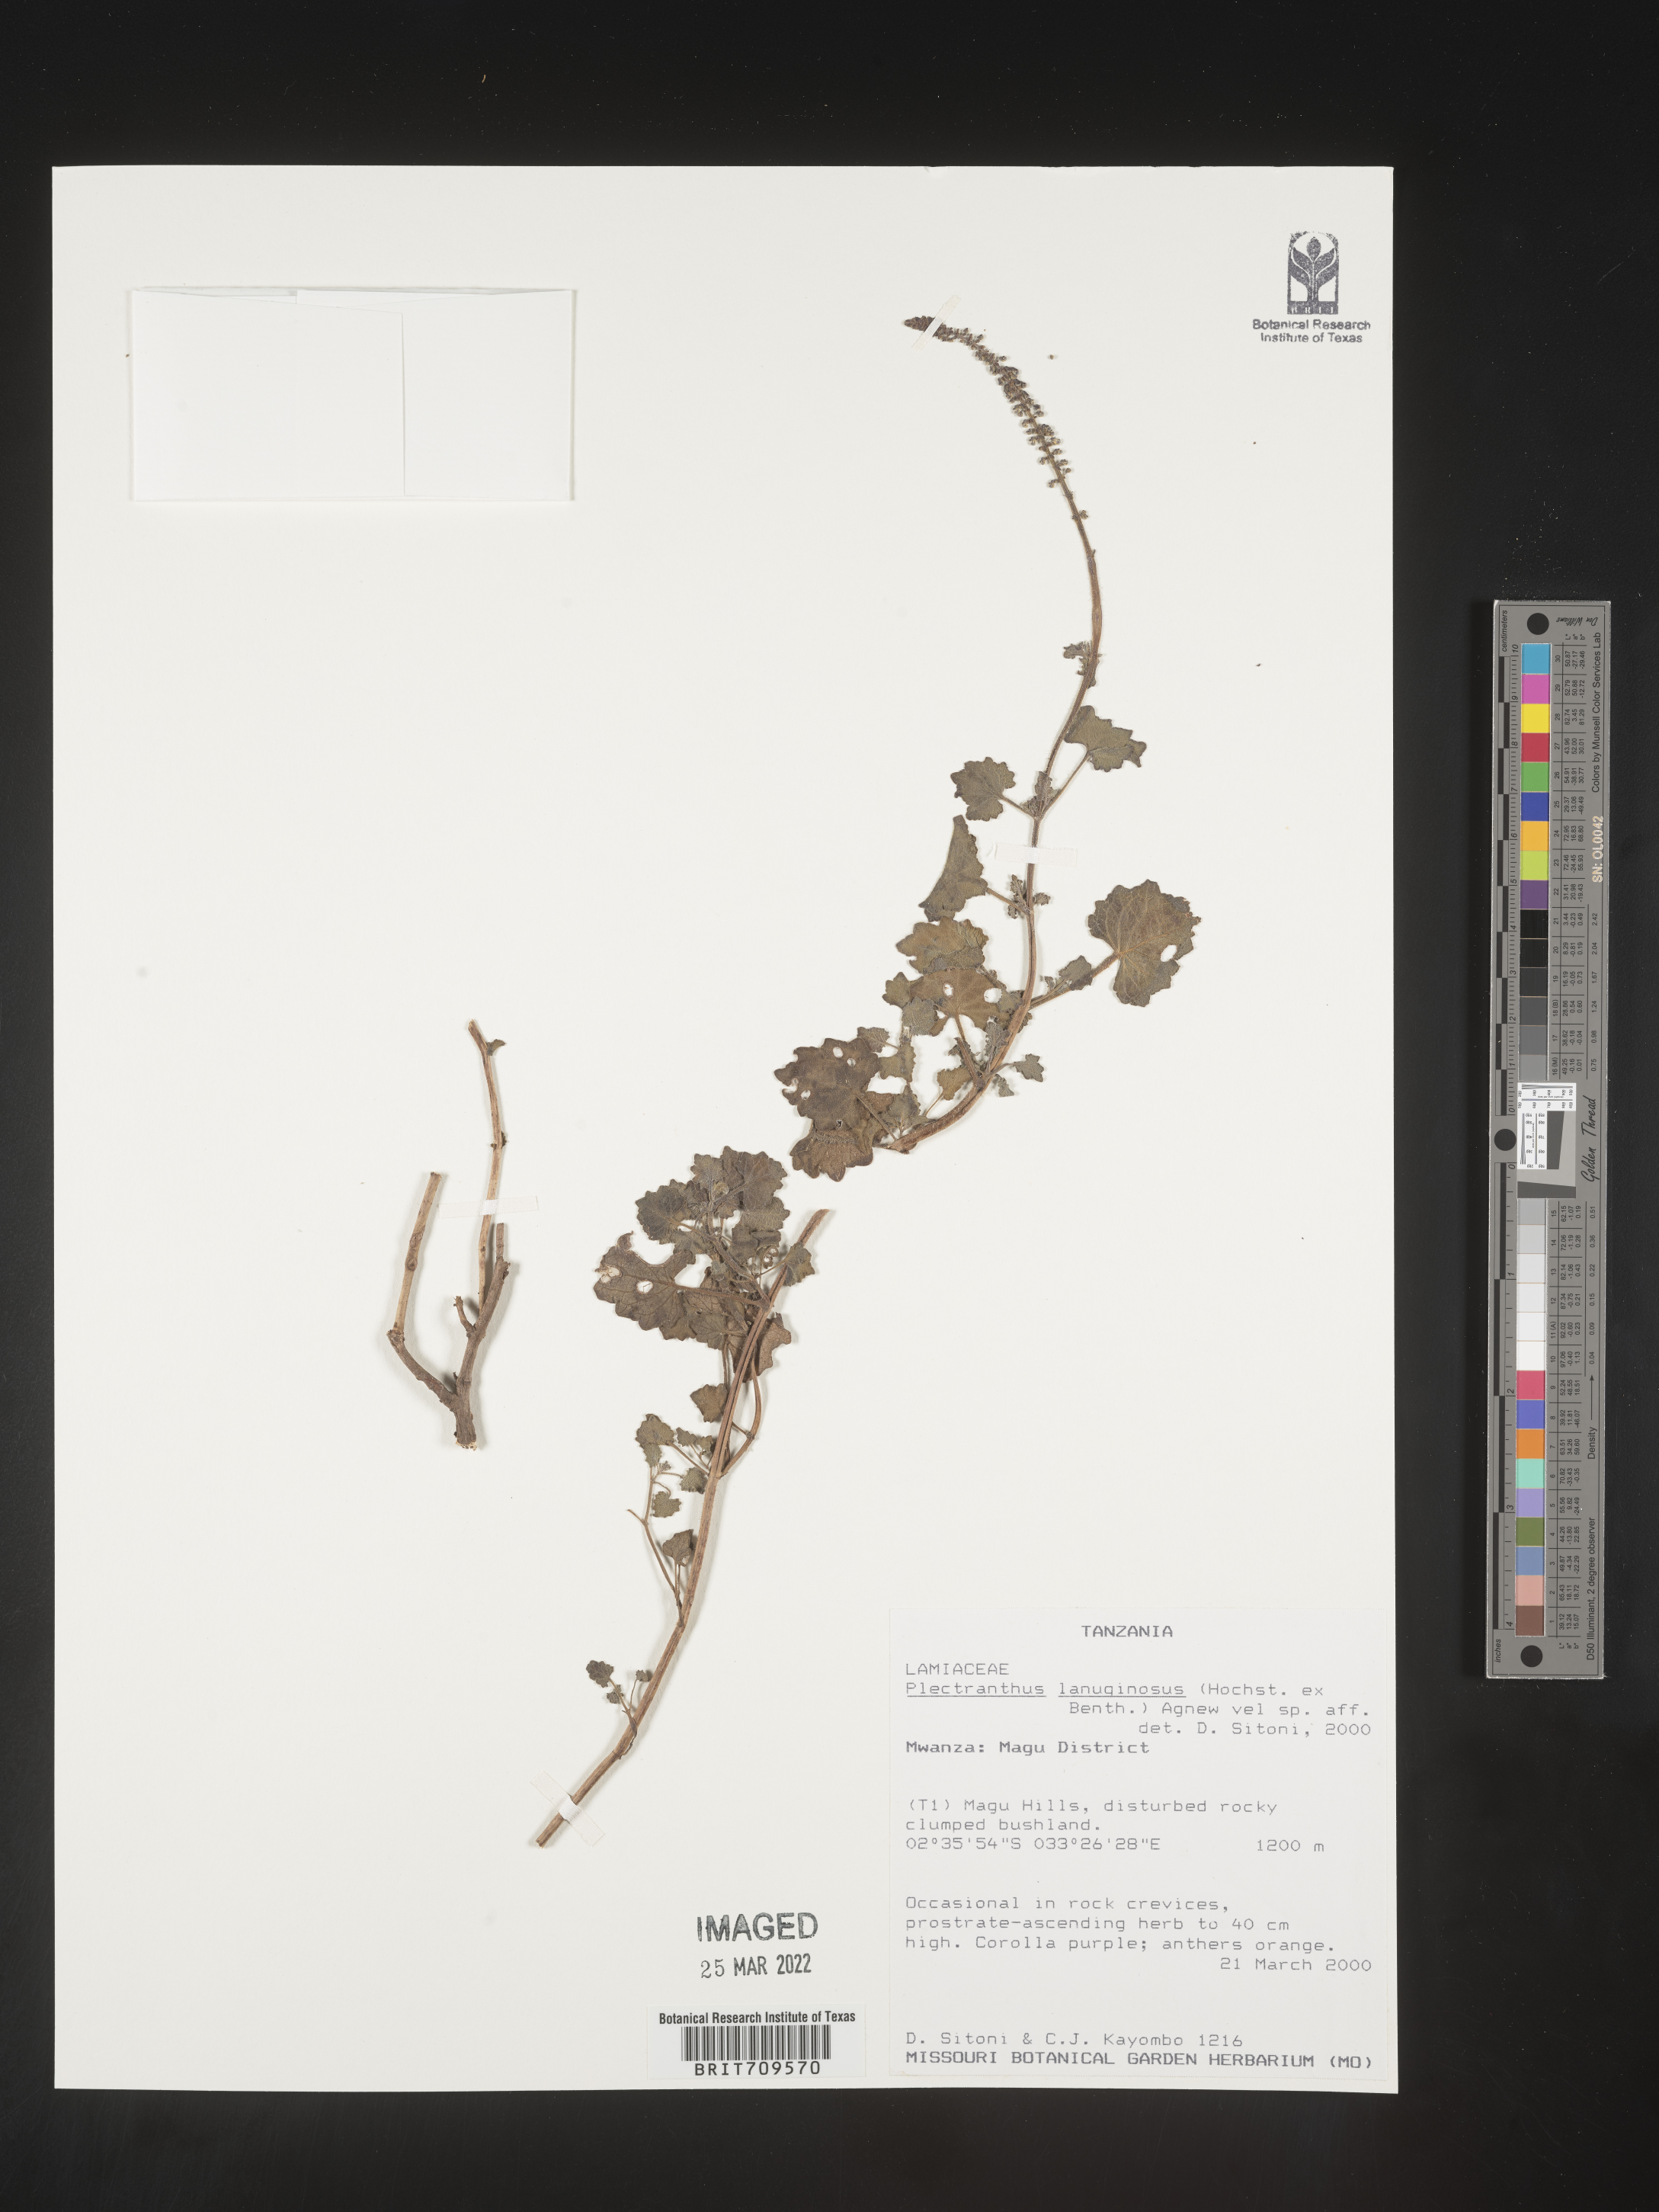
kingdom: Plantae
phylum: Tracheophyta
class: Magnoliopsida
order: Lamiales
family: Lamiaceae
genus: Plectranthus
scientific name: Plectranthus
